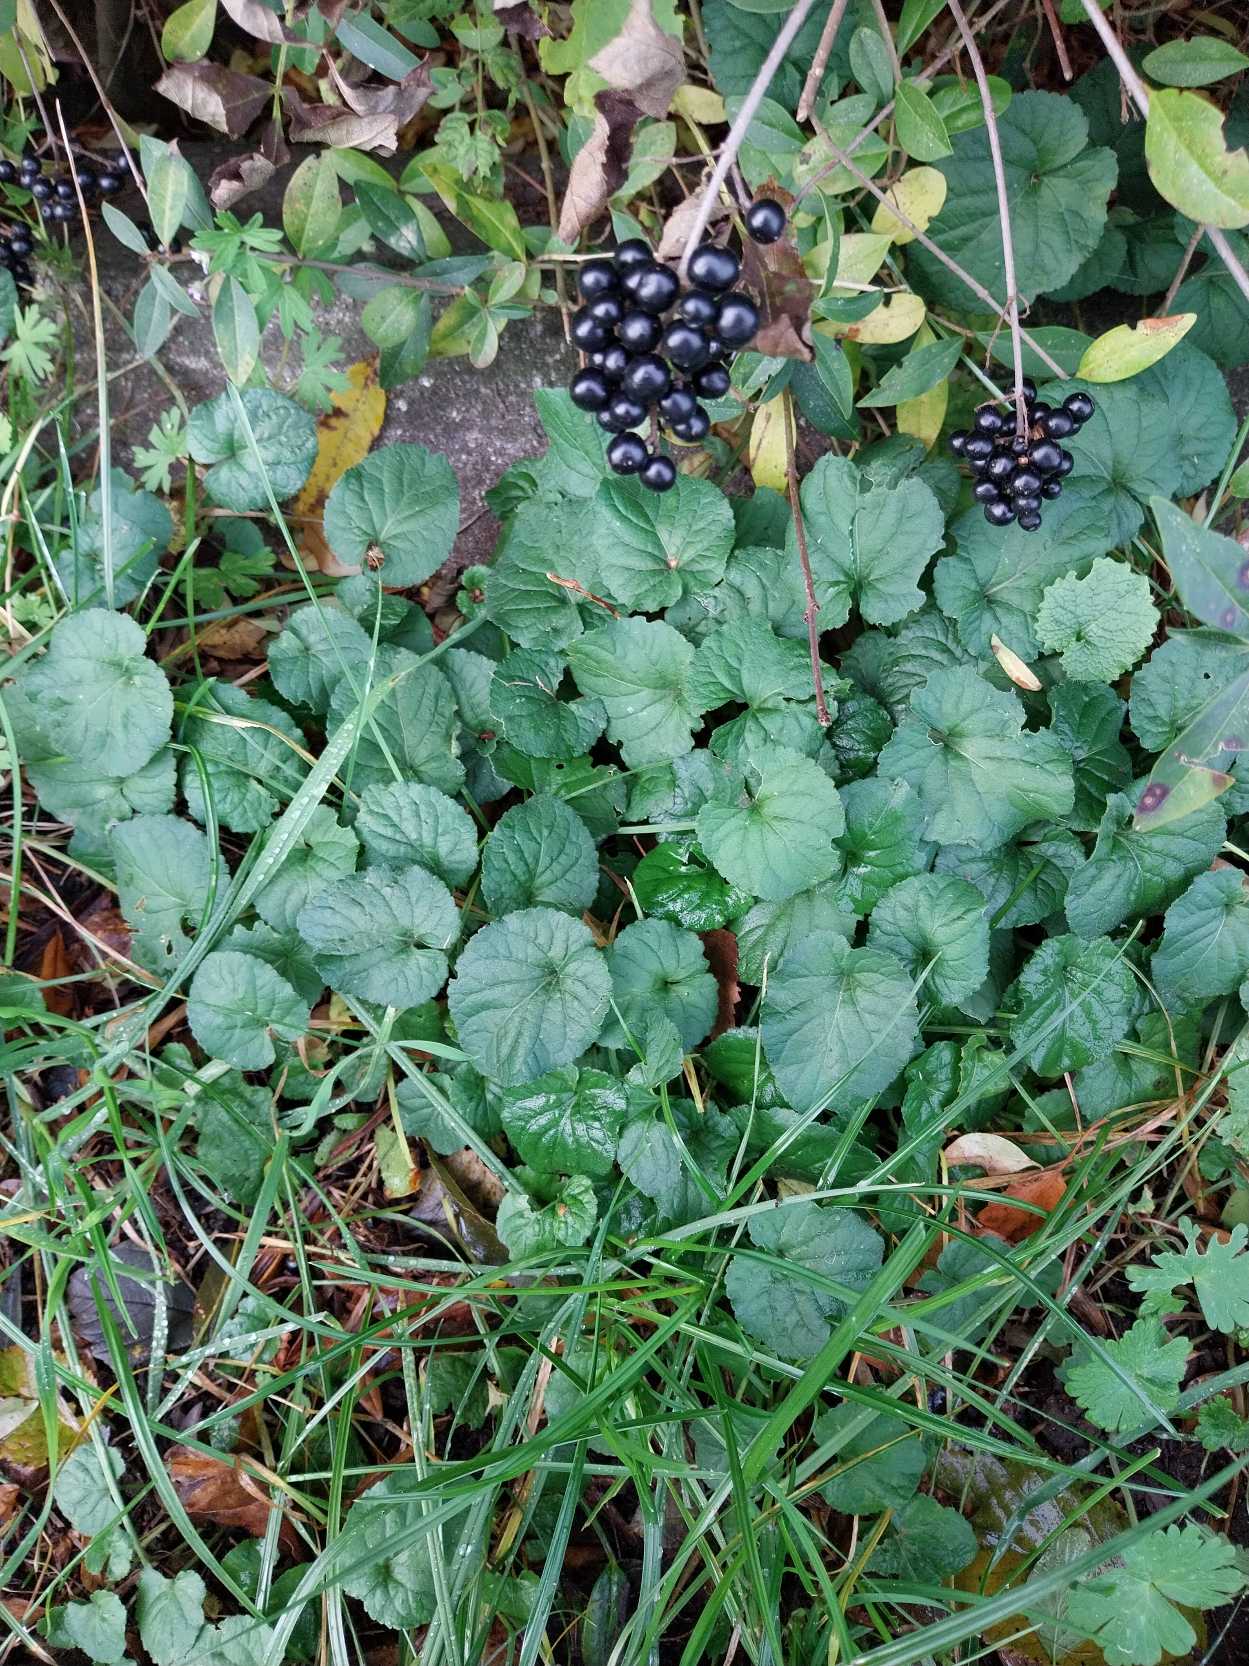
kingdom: Plantae
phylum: Tracheophyta
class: Magnoliopsida
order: Malpighiales
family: Violaceae
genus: Viola
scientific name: Viola odorata
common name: Marts-viol
